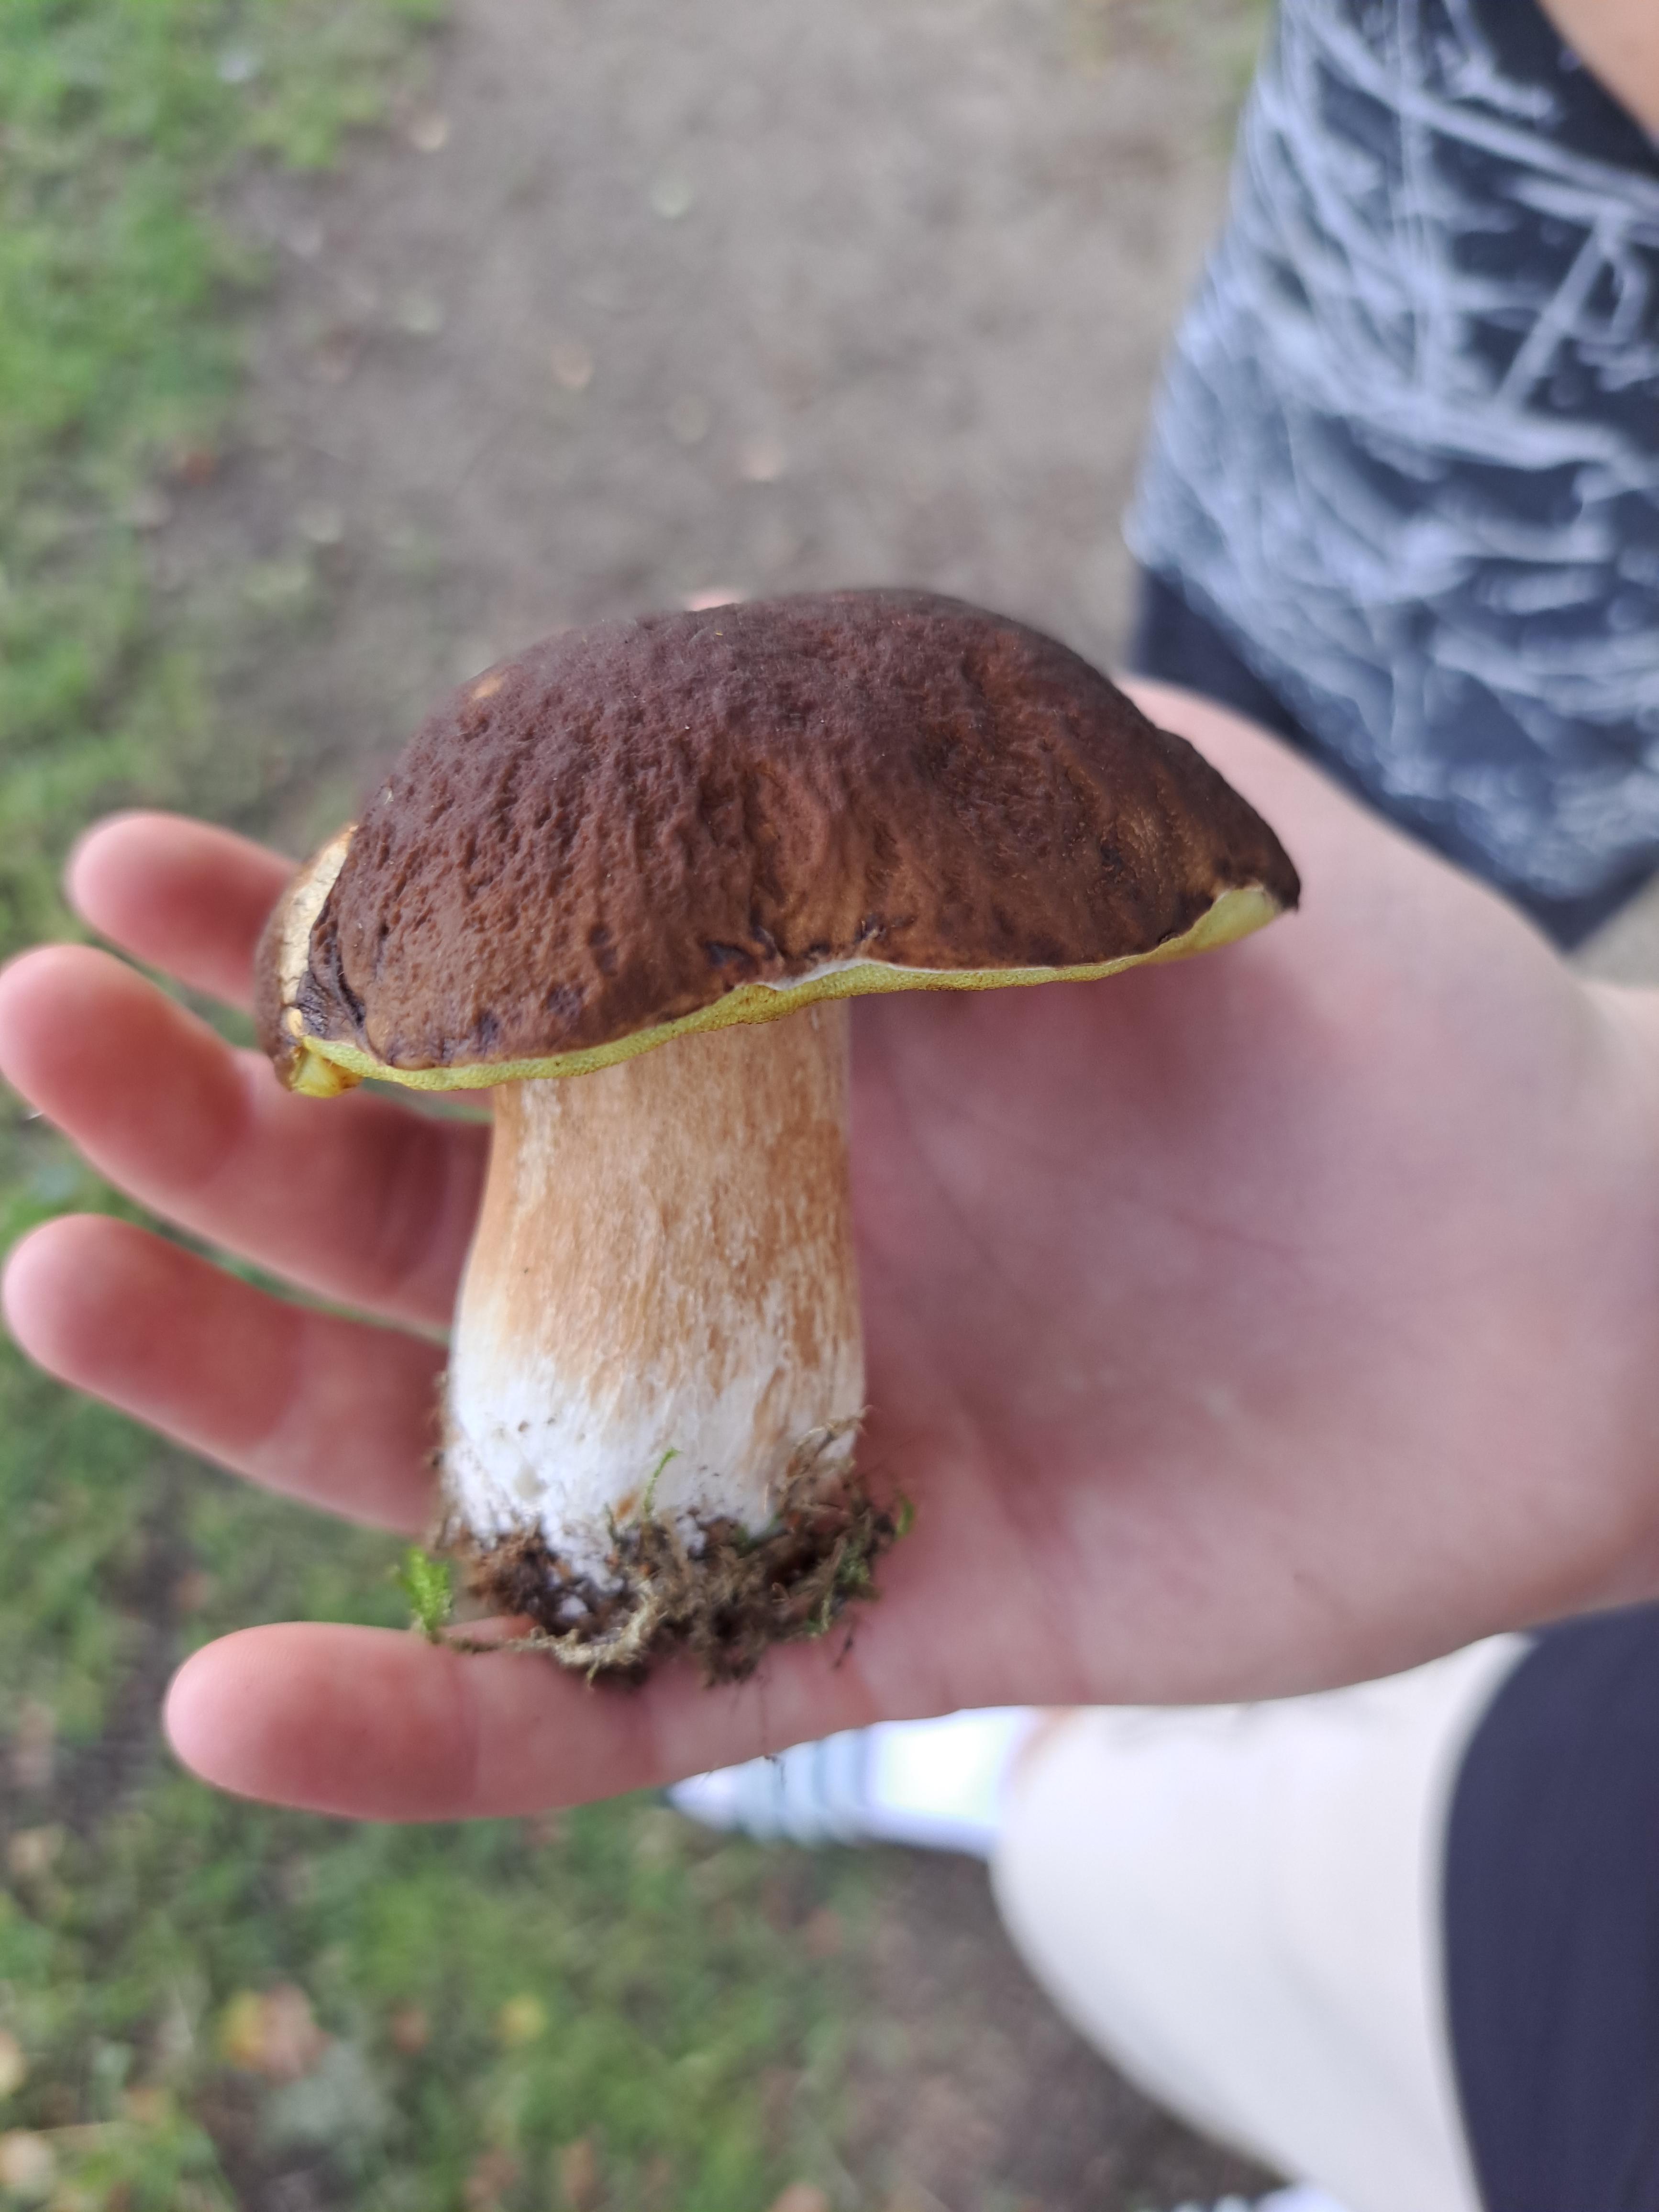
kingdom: Fungi
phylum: Basidiomycota
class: Agaricomycetes
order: Boletales
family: Boletaceae
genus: Boletus
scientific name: Boletus edulis
